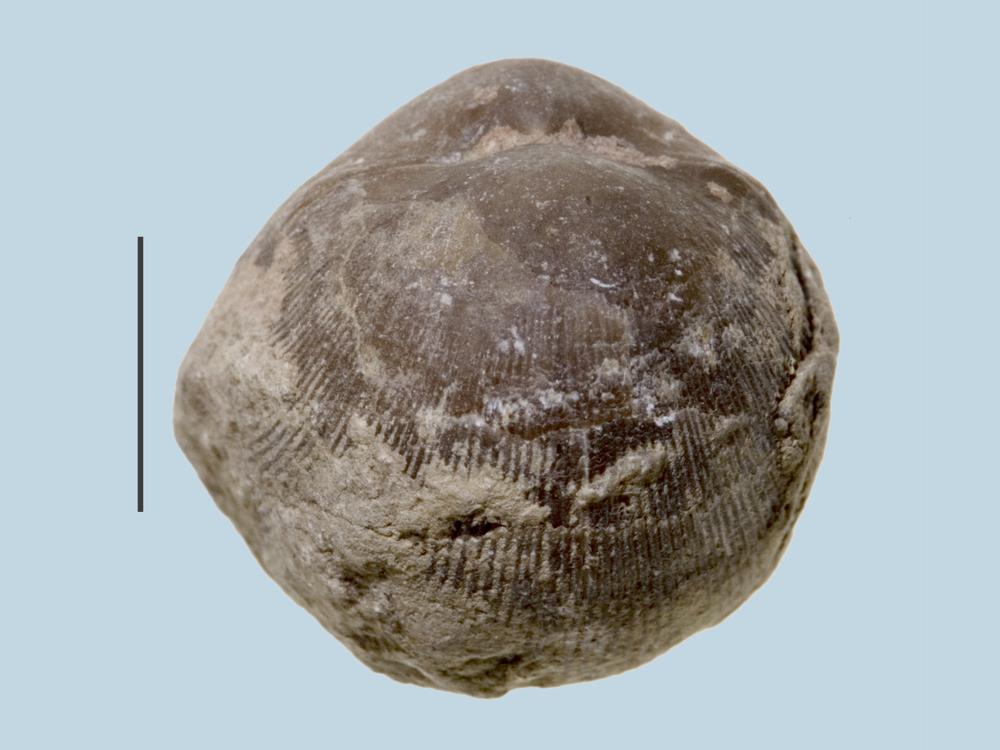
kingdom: Animalia
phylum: Brachiopoda
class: Rhynchonellata
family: Dalmanellidae
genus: Orthis
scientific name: Orthis
